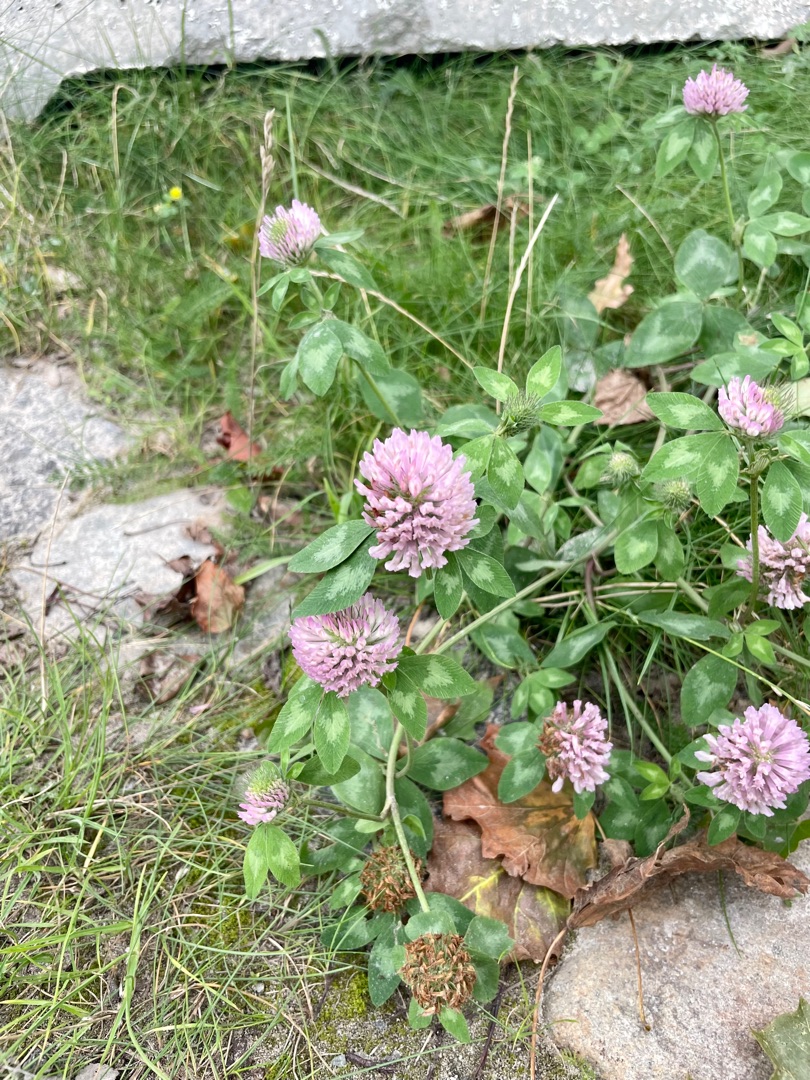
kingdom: Plantae
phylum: Tracheophyta
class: Magnoliopsida
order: Fabales
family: Fabaceae
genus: Trifolium
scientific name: Trifolium pratense
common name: Rød-kløver
